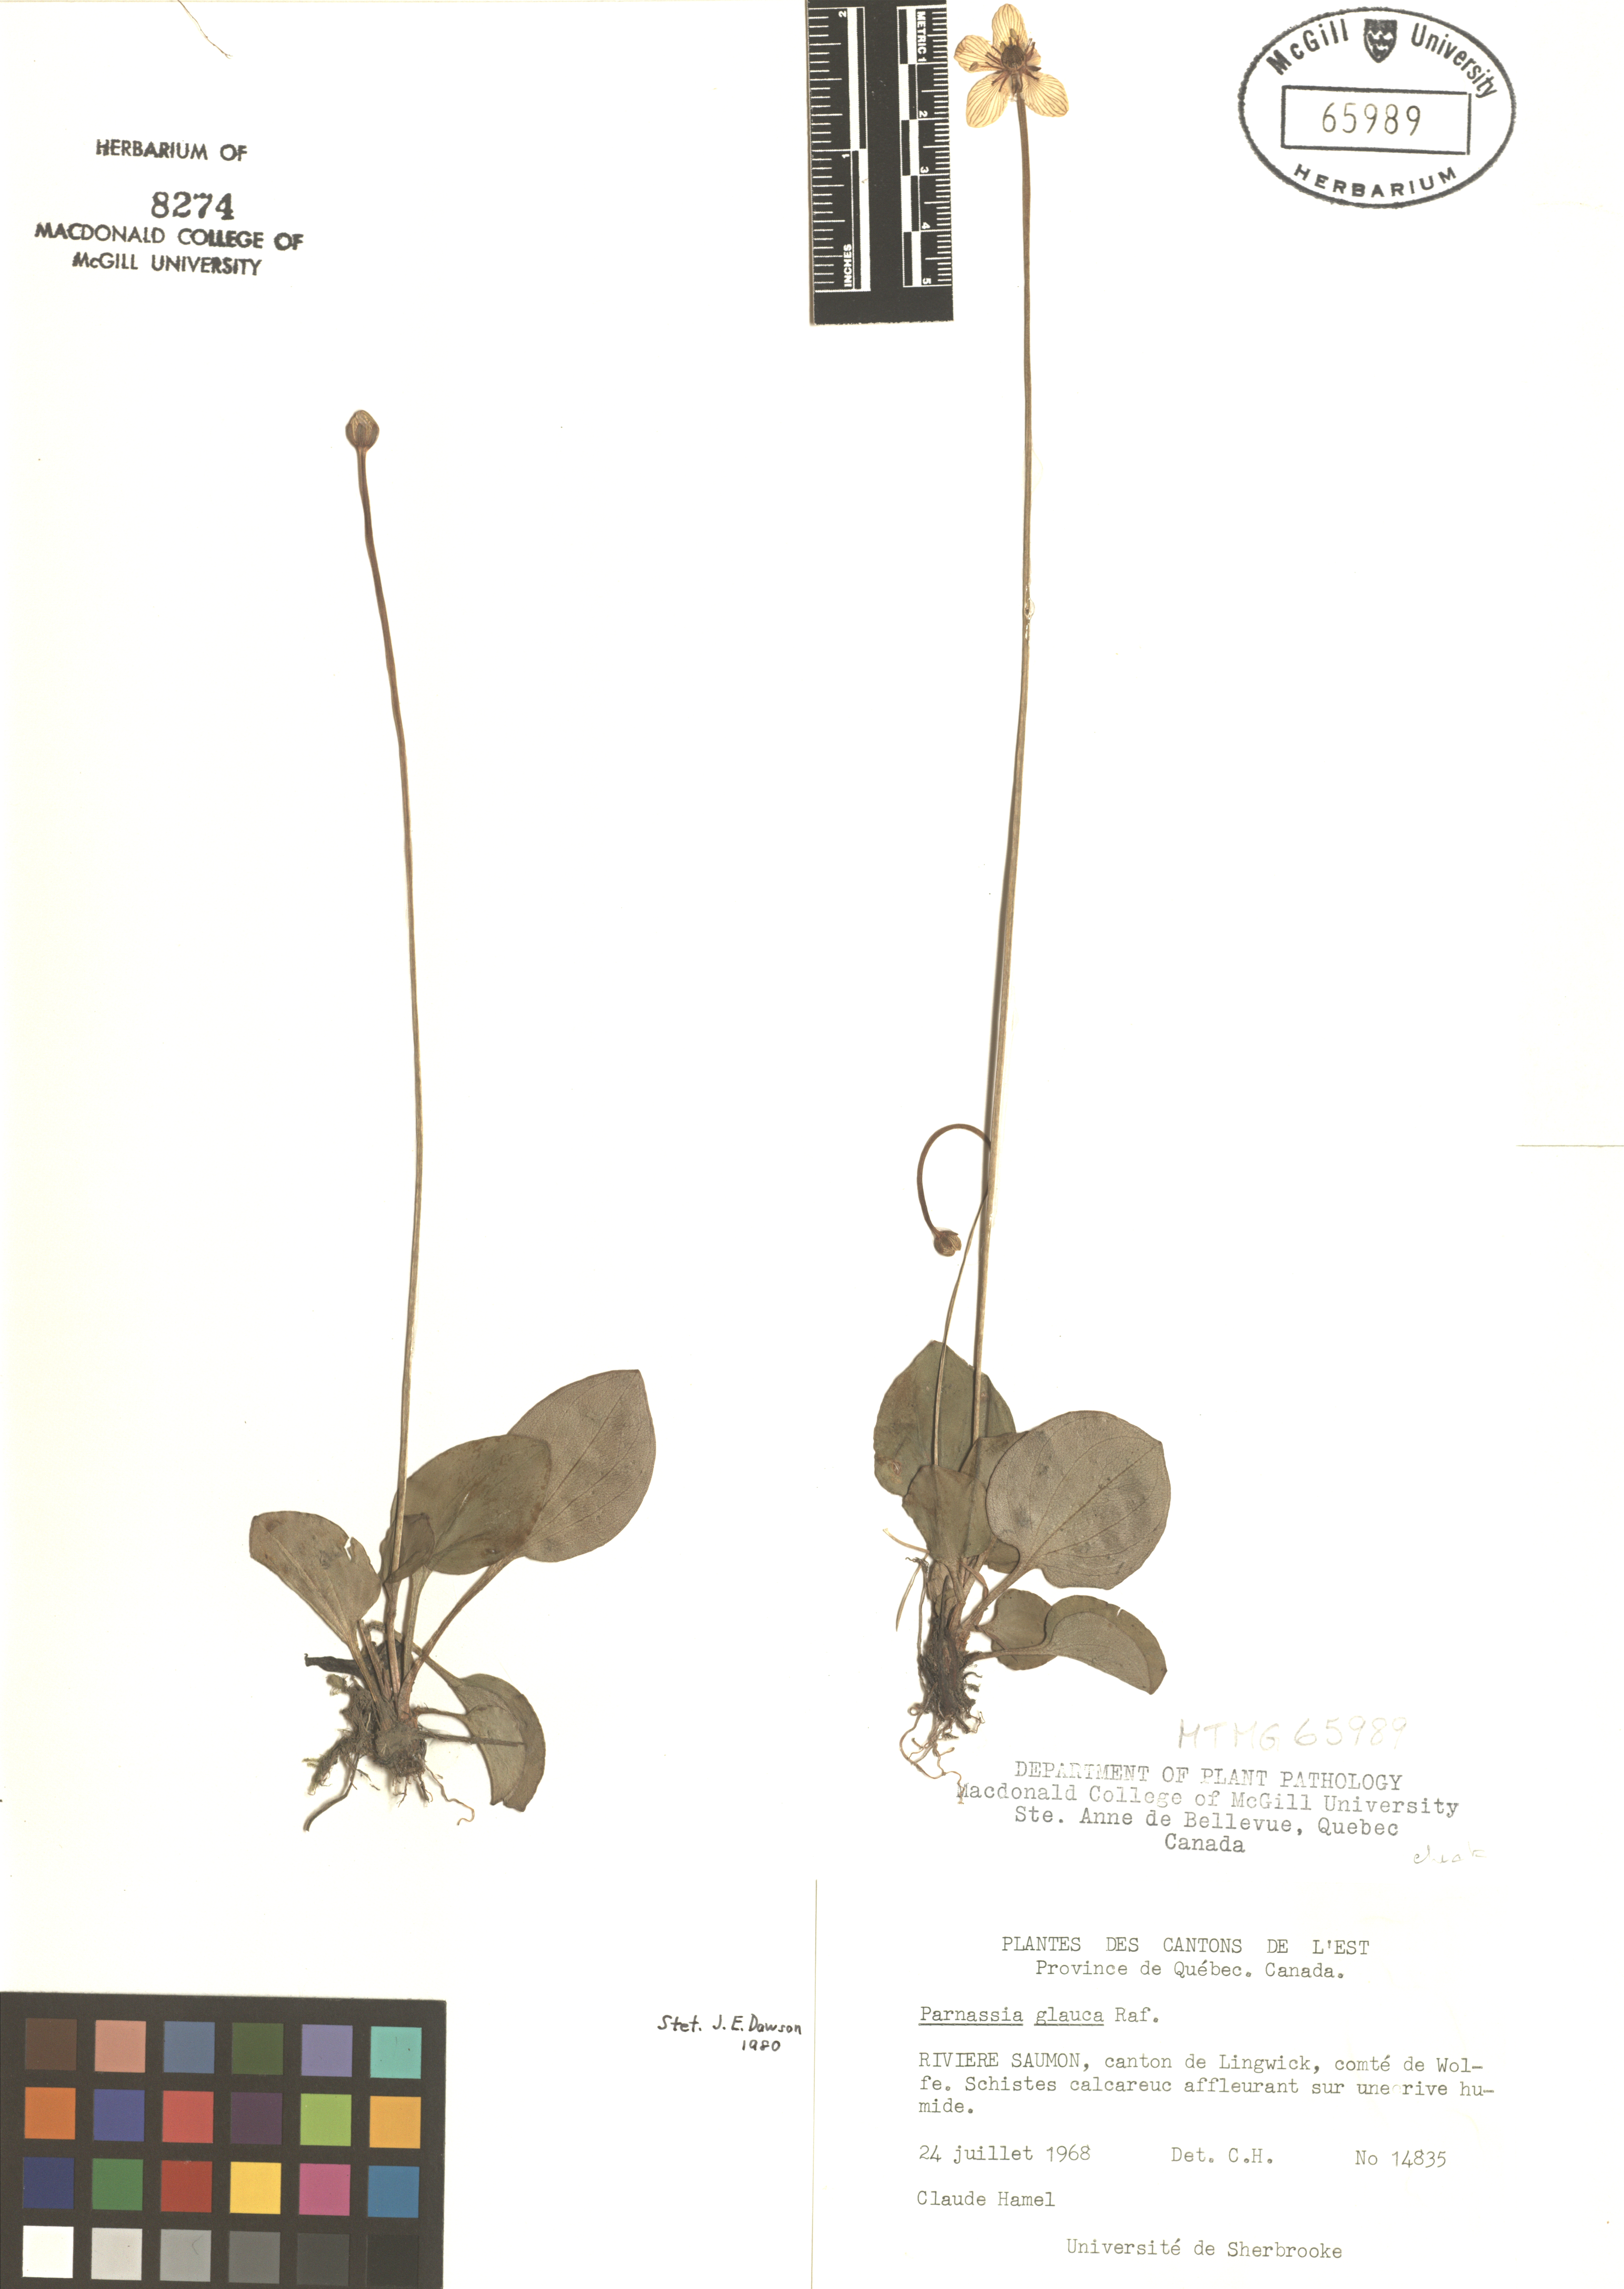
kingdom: Plantae
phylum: Tracheophyta
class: Magnoliopsida
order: Celastrales
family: Parnassiaceae
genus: Parnassia
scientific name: Parnassia glauca
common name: American grass-of-parnassus
